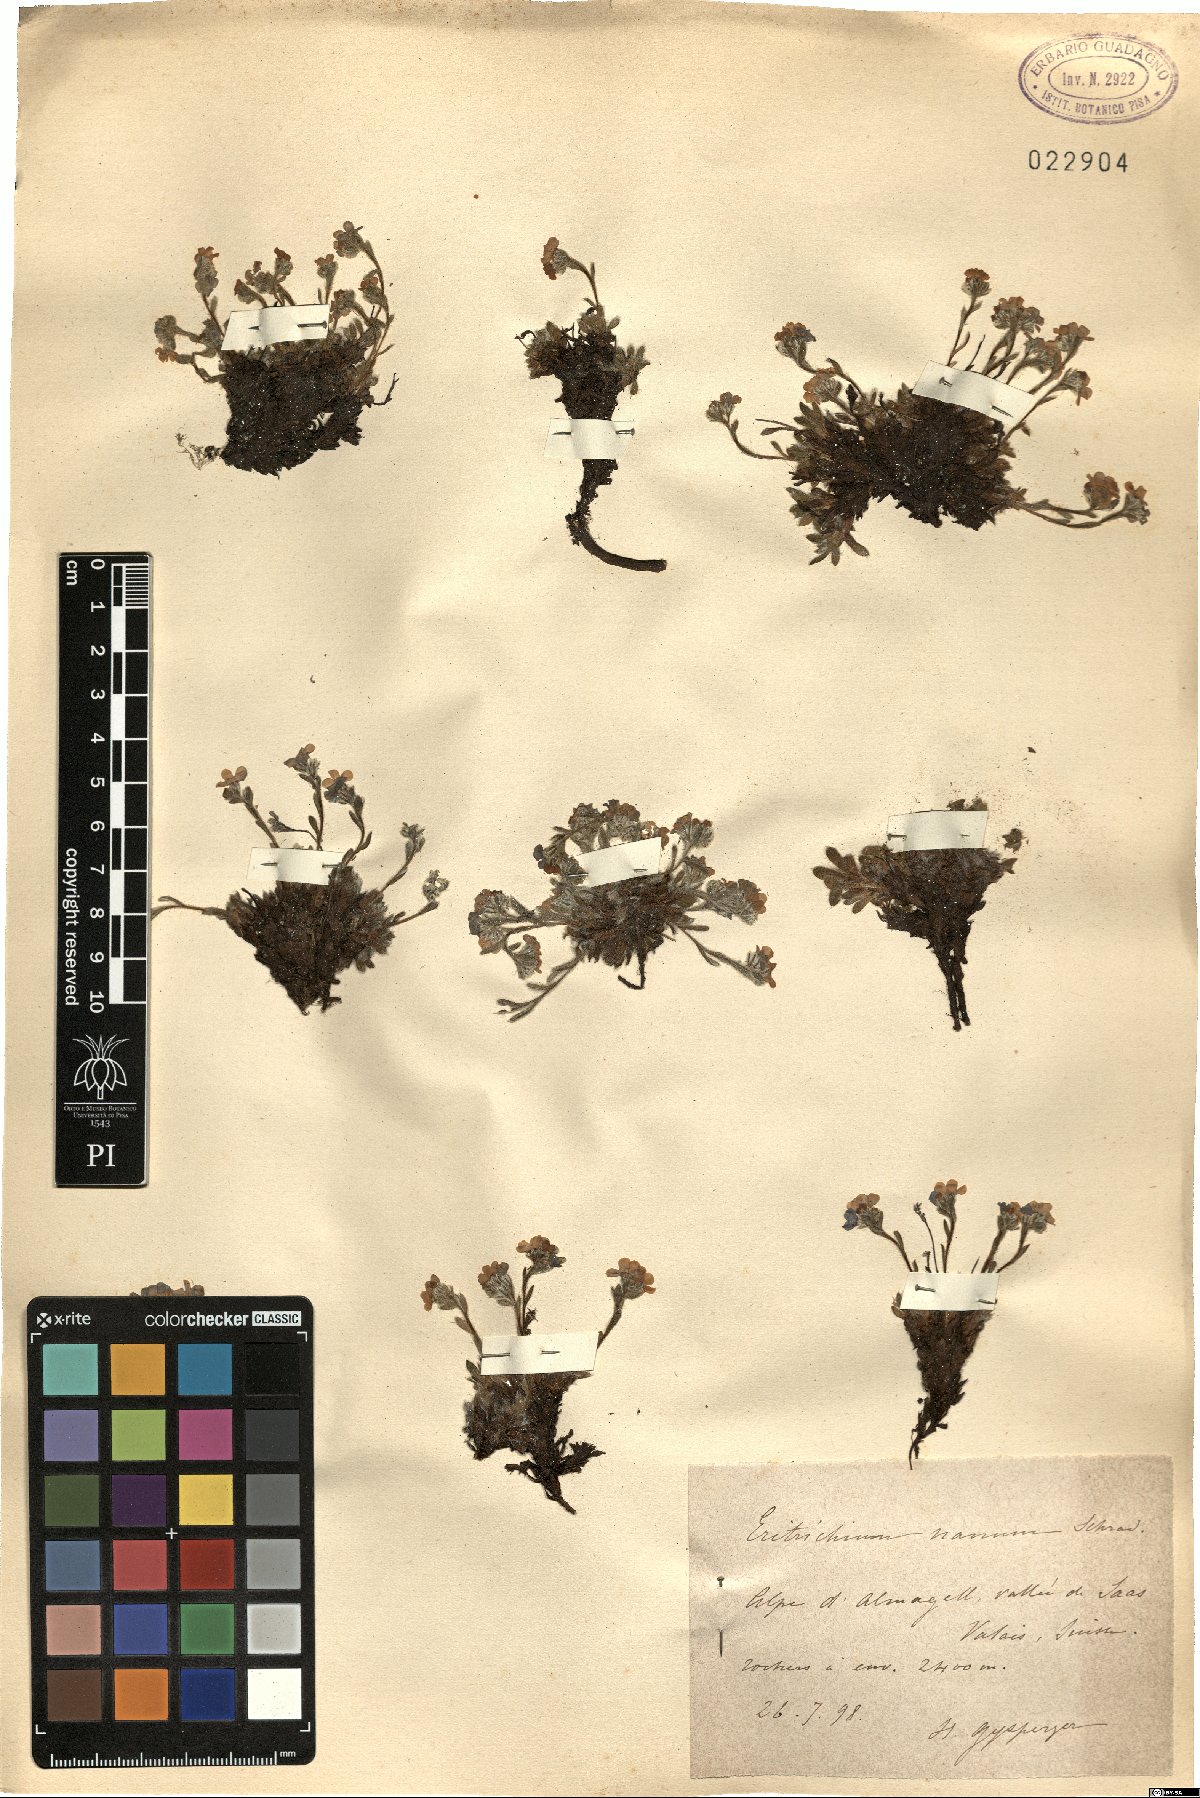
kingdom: Plantae
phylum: Tracheophyta
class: Magnoliopsida
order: Boraginales
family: Boraginaceae
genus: Eritrichium
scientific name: Eritrichium nanum
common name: King-of-the-alps
